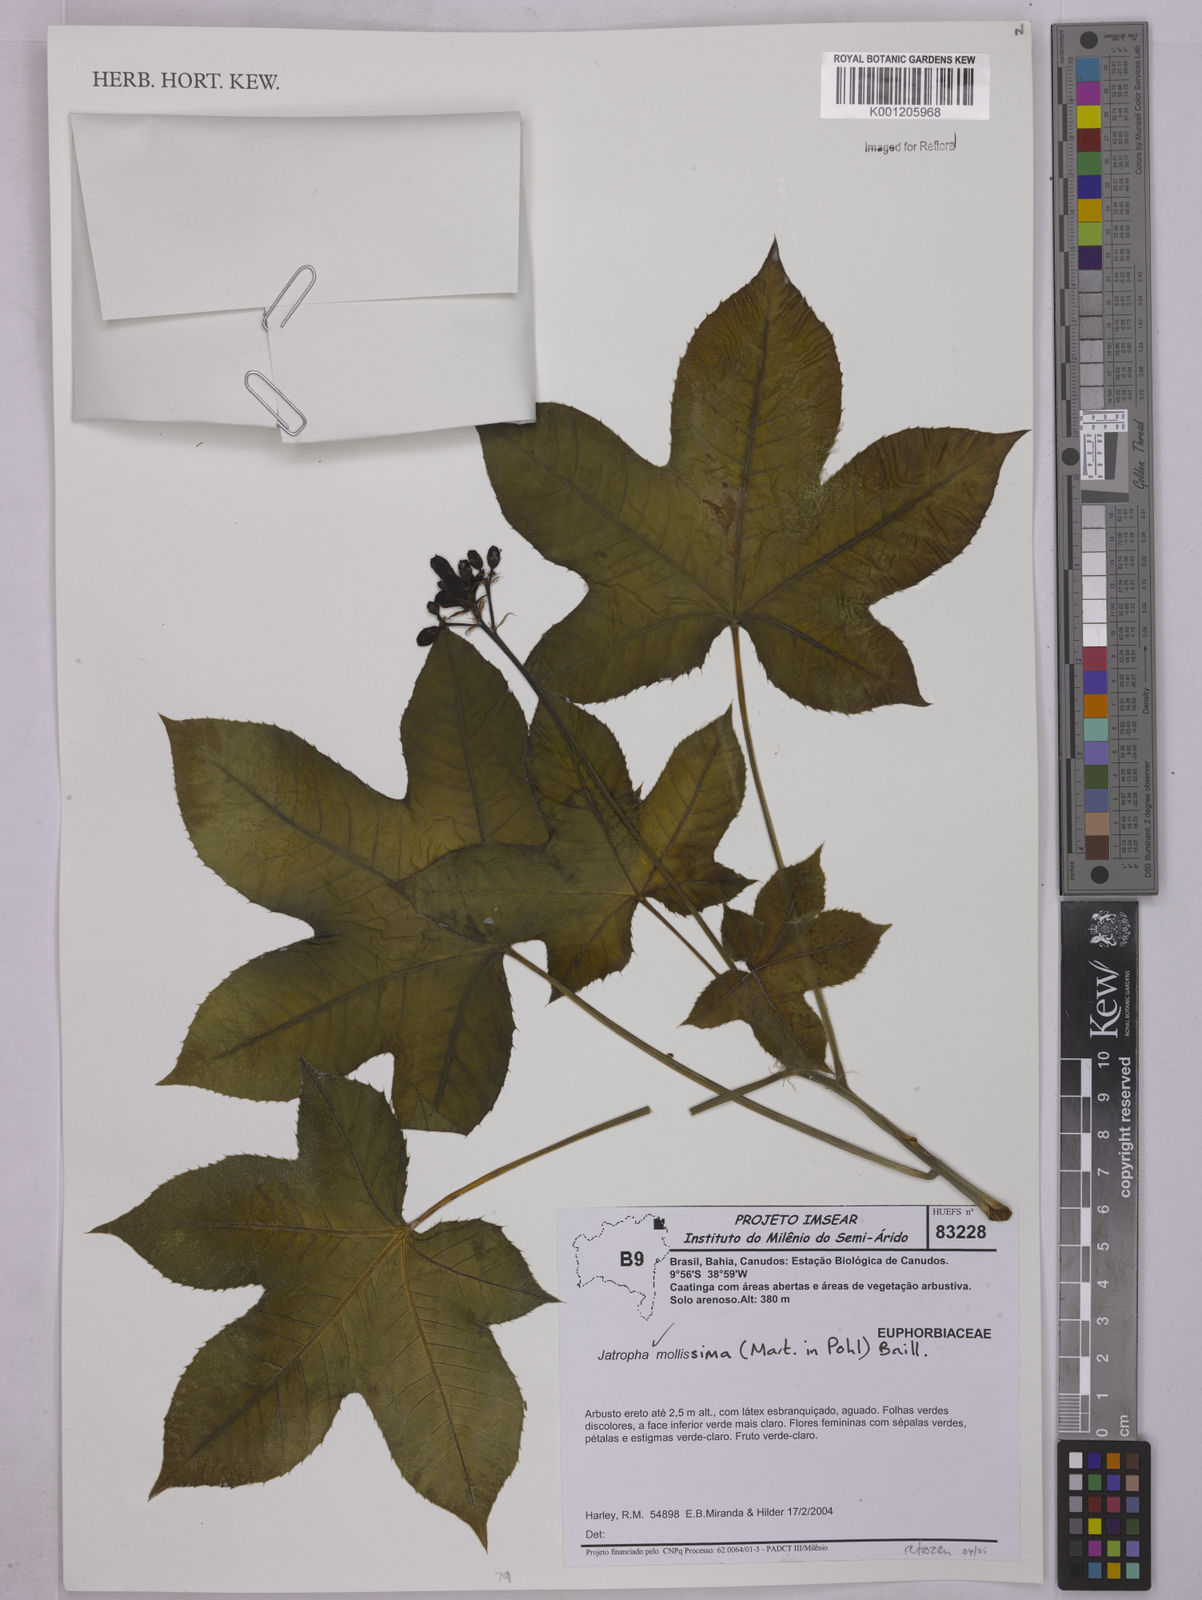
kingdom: Plantae
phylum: Tracheophyta
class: Magnoliopsida
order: Malpighiales
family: Euphorbiaceae
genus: Jatropha
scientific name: Jatropha mollissima
